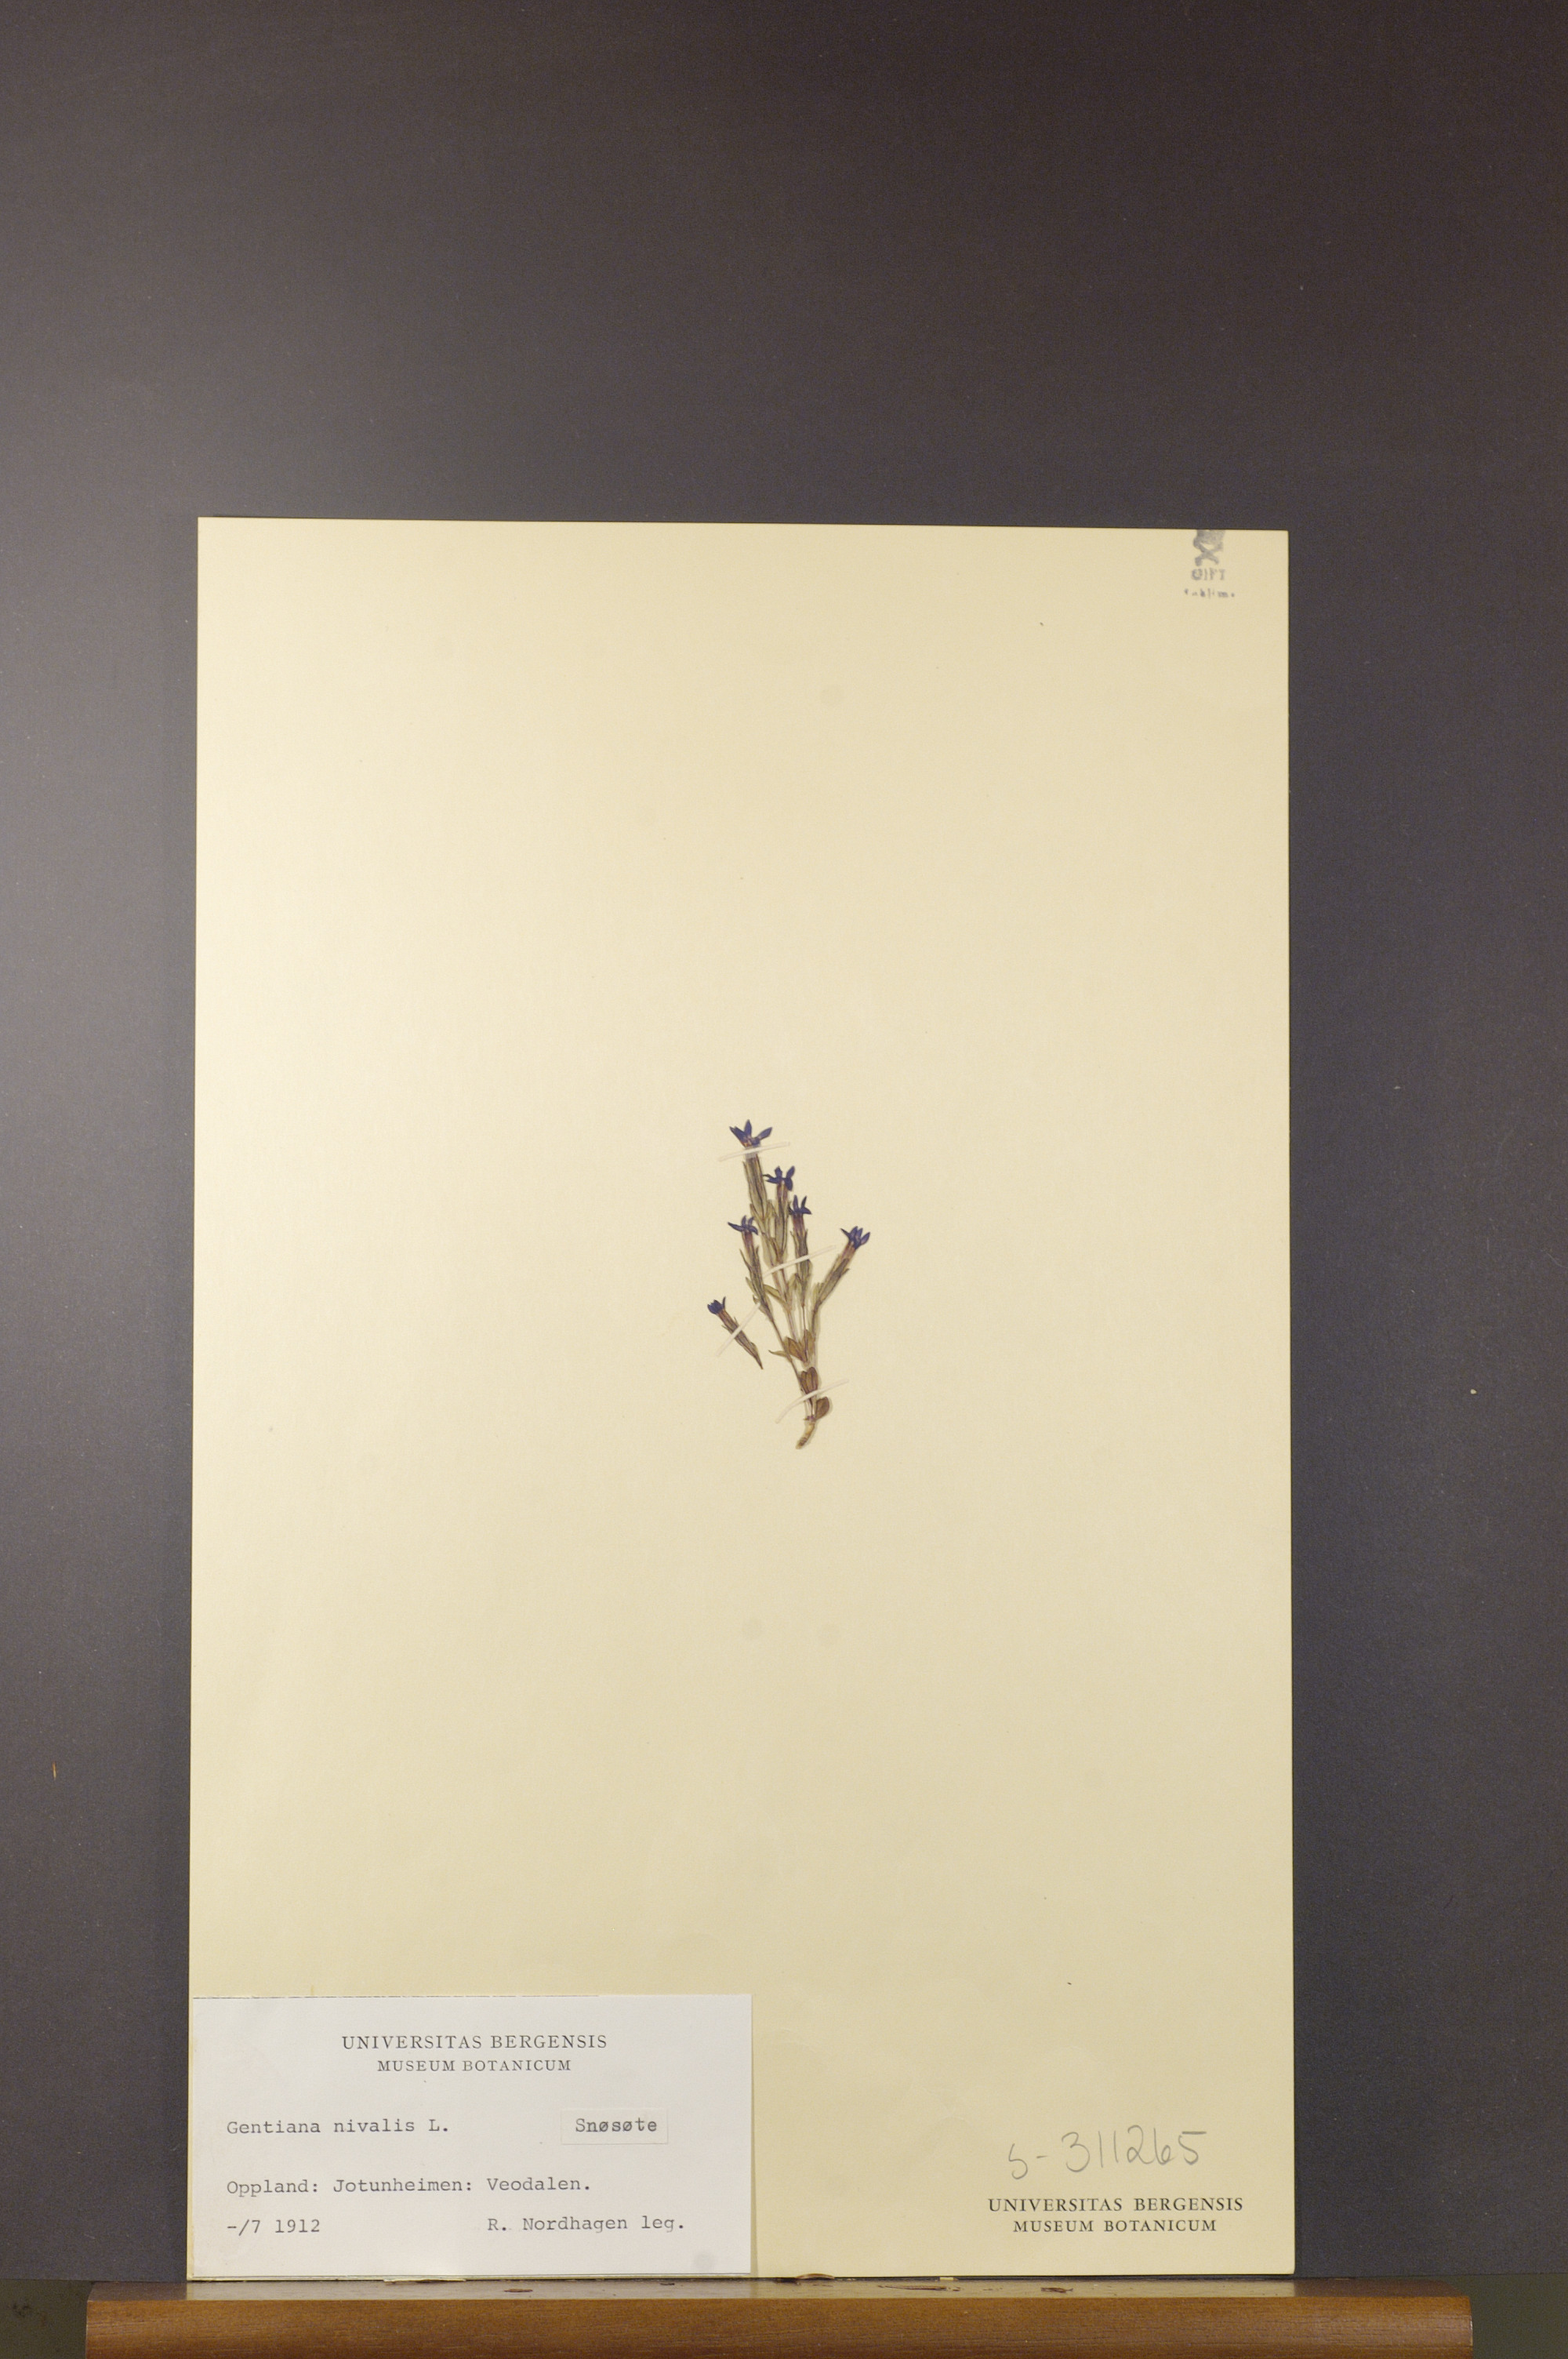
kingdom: Plantae
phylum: Tracheophyta
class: Magnoliopsida
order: Gentianales
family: Gentianaceae
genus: Gentiana
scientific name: Gentiana nivalis
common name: Alpine gentian
